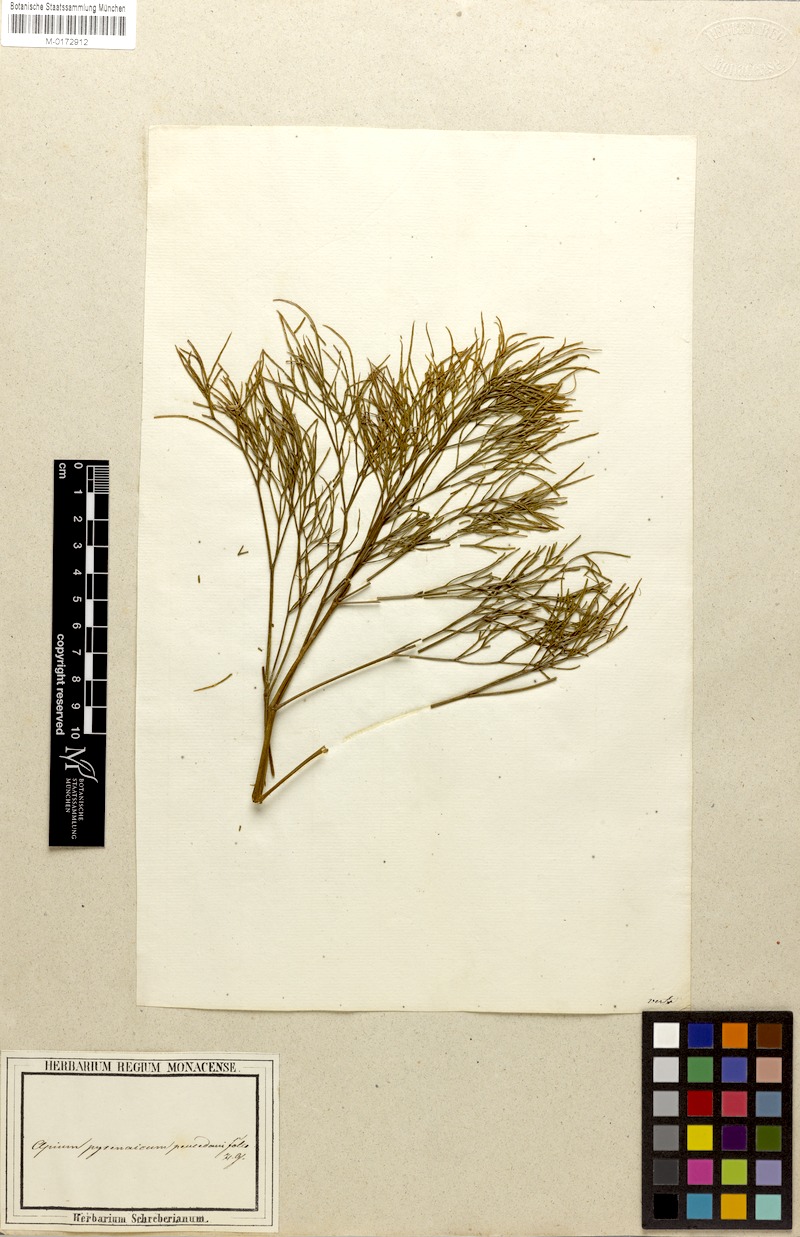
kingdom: Plantae
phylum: Tracheophyta
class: Magnoliopsida
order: Apiales
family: Apiaceae
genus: Seseli
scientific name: Seseli
